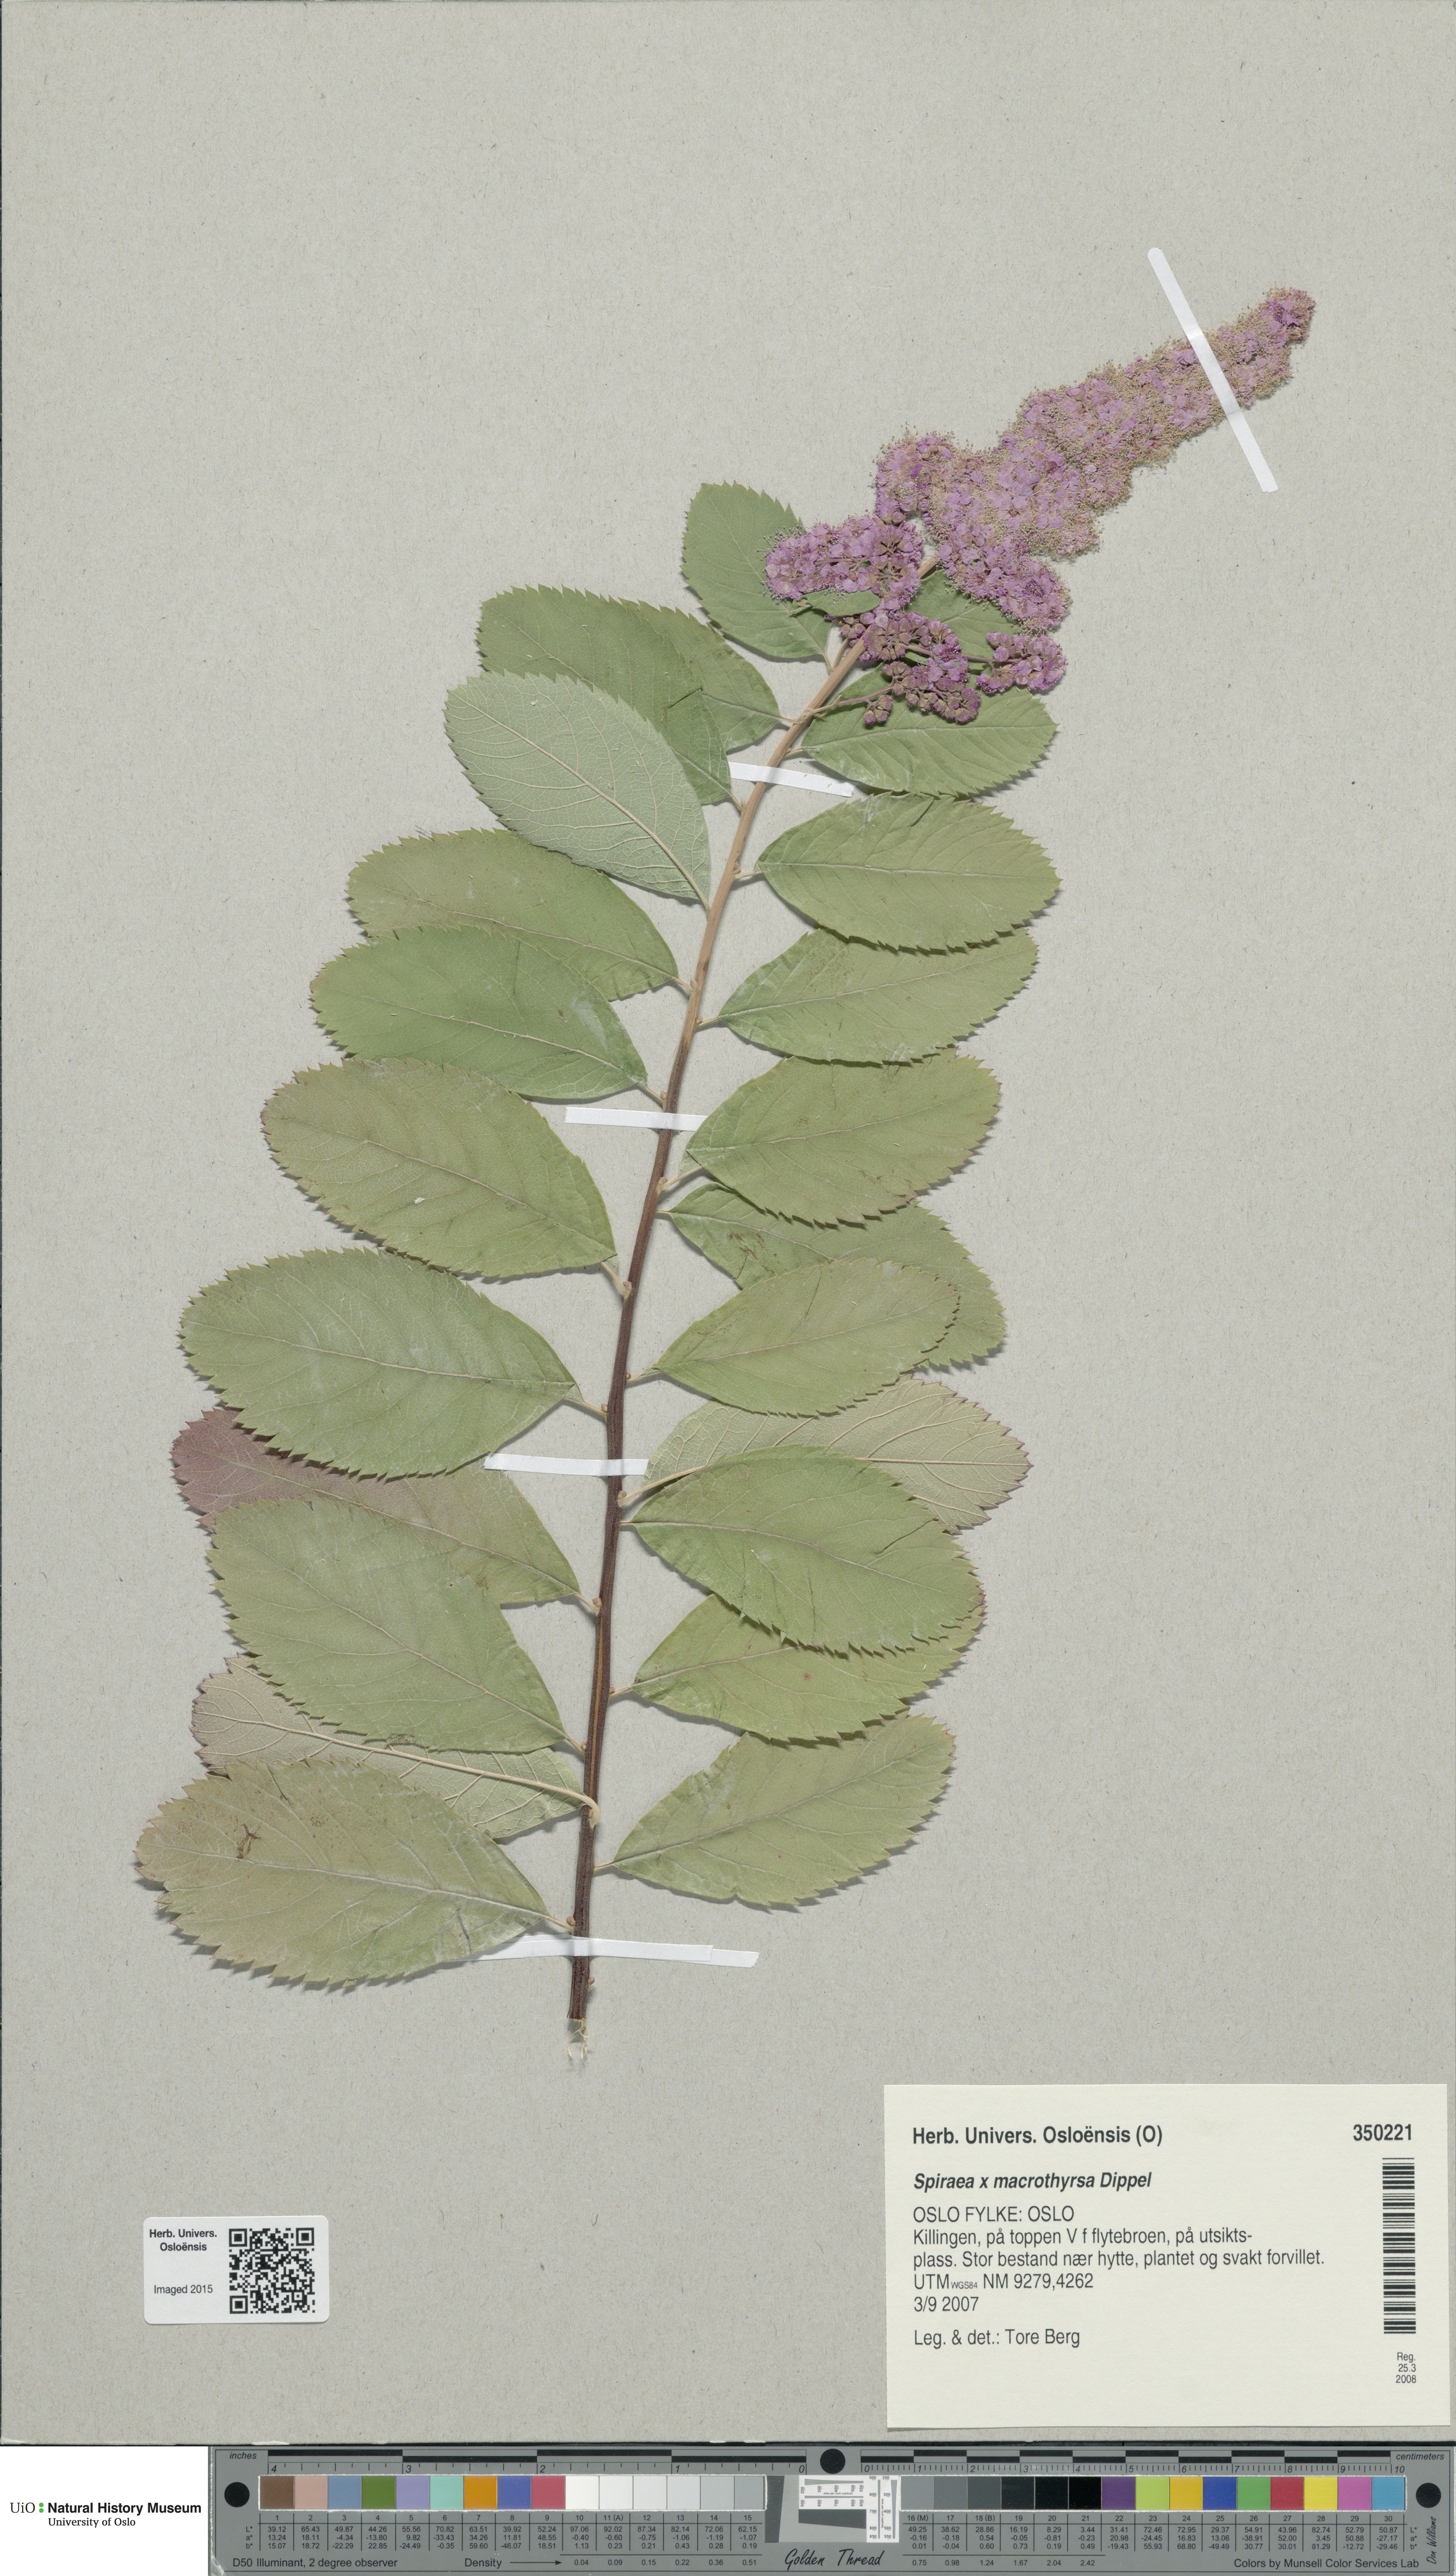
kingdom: Plantae
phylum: Tracheophyta
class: Magnoliopsida
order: Rosales
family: Rosaceae
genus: Spiraea
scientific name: Spiraea macrothyrsa
